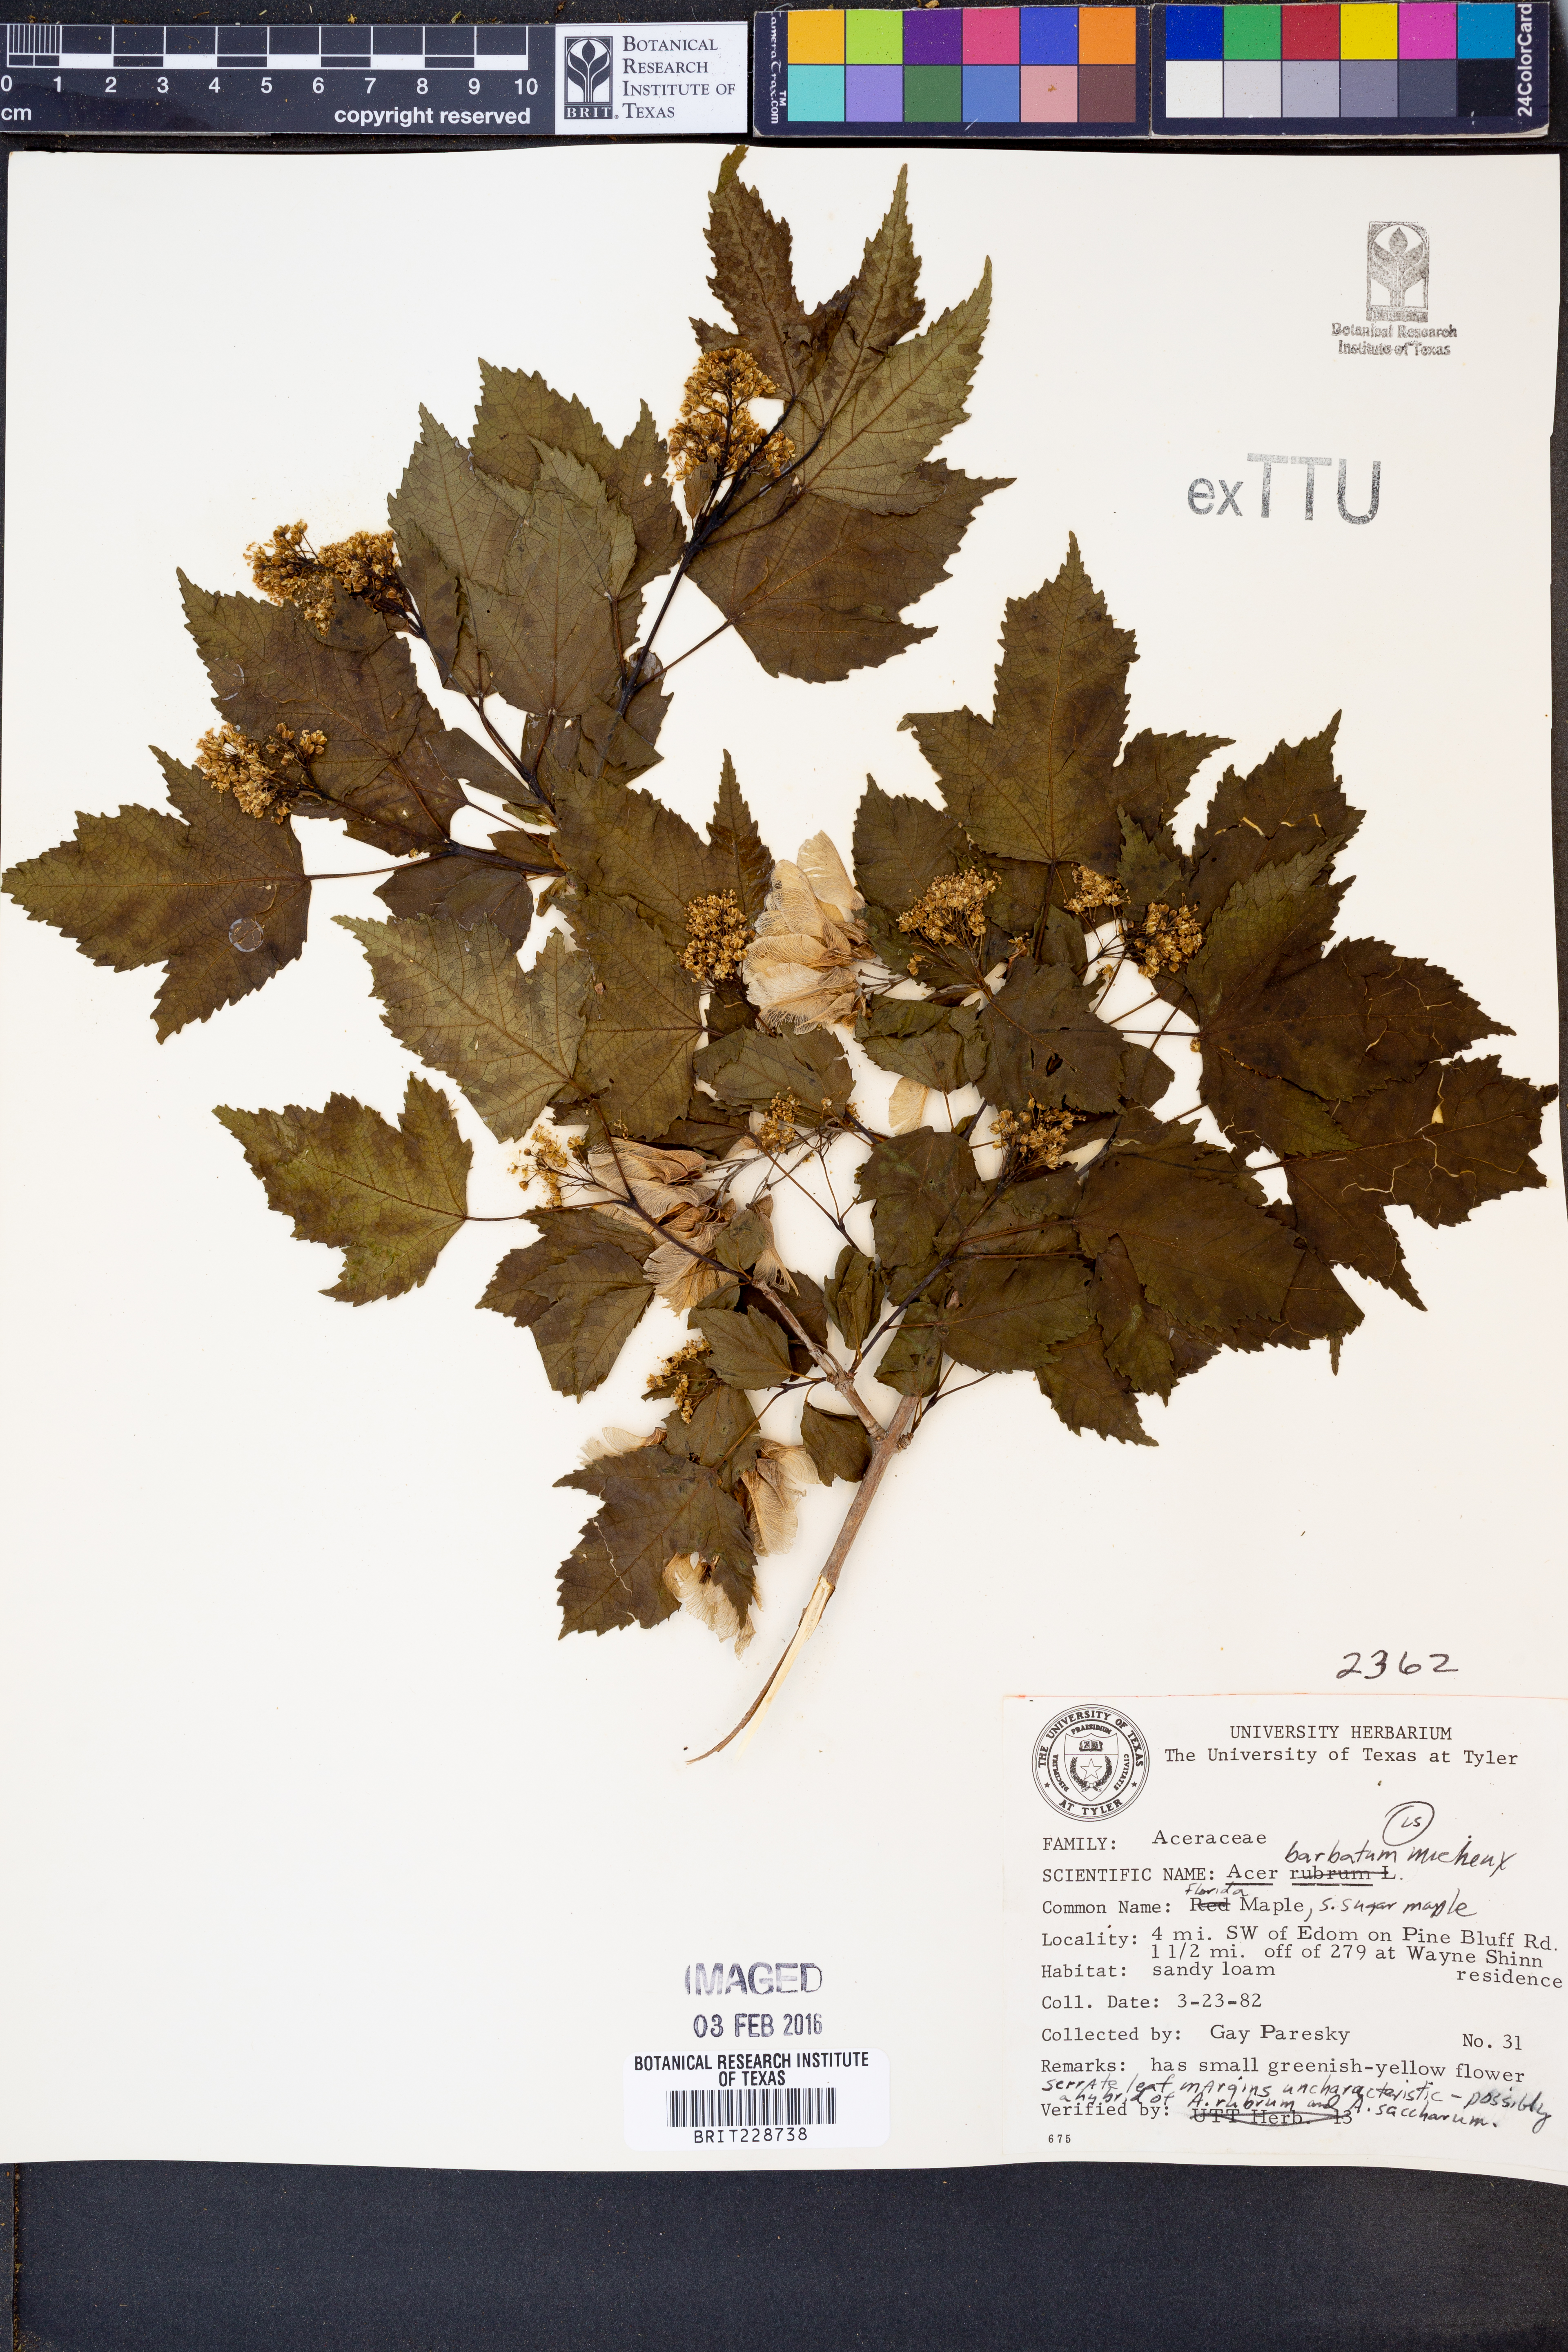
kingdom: Plantae
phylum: Tracheophyta
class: Magnoliopsida
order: Sapindales
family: Sapindaceae
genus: Acer
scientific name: Acer barbatum
